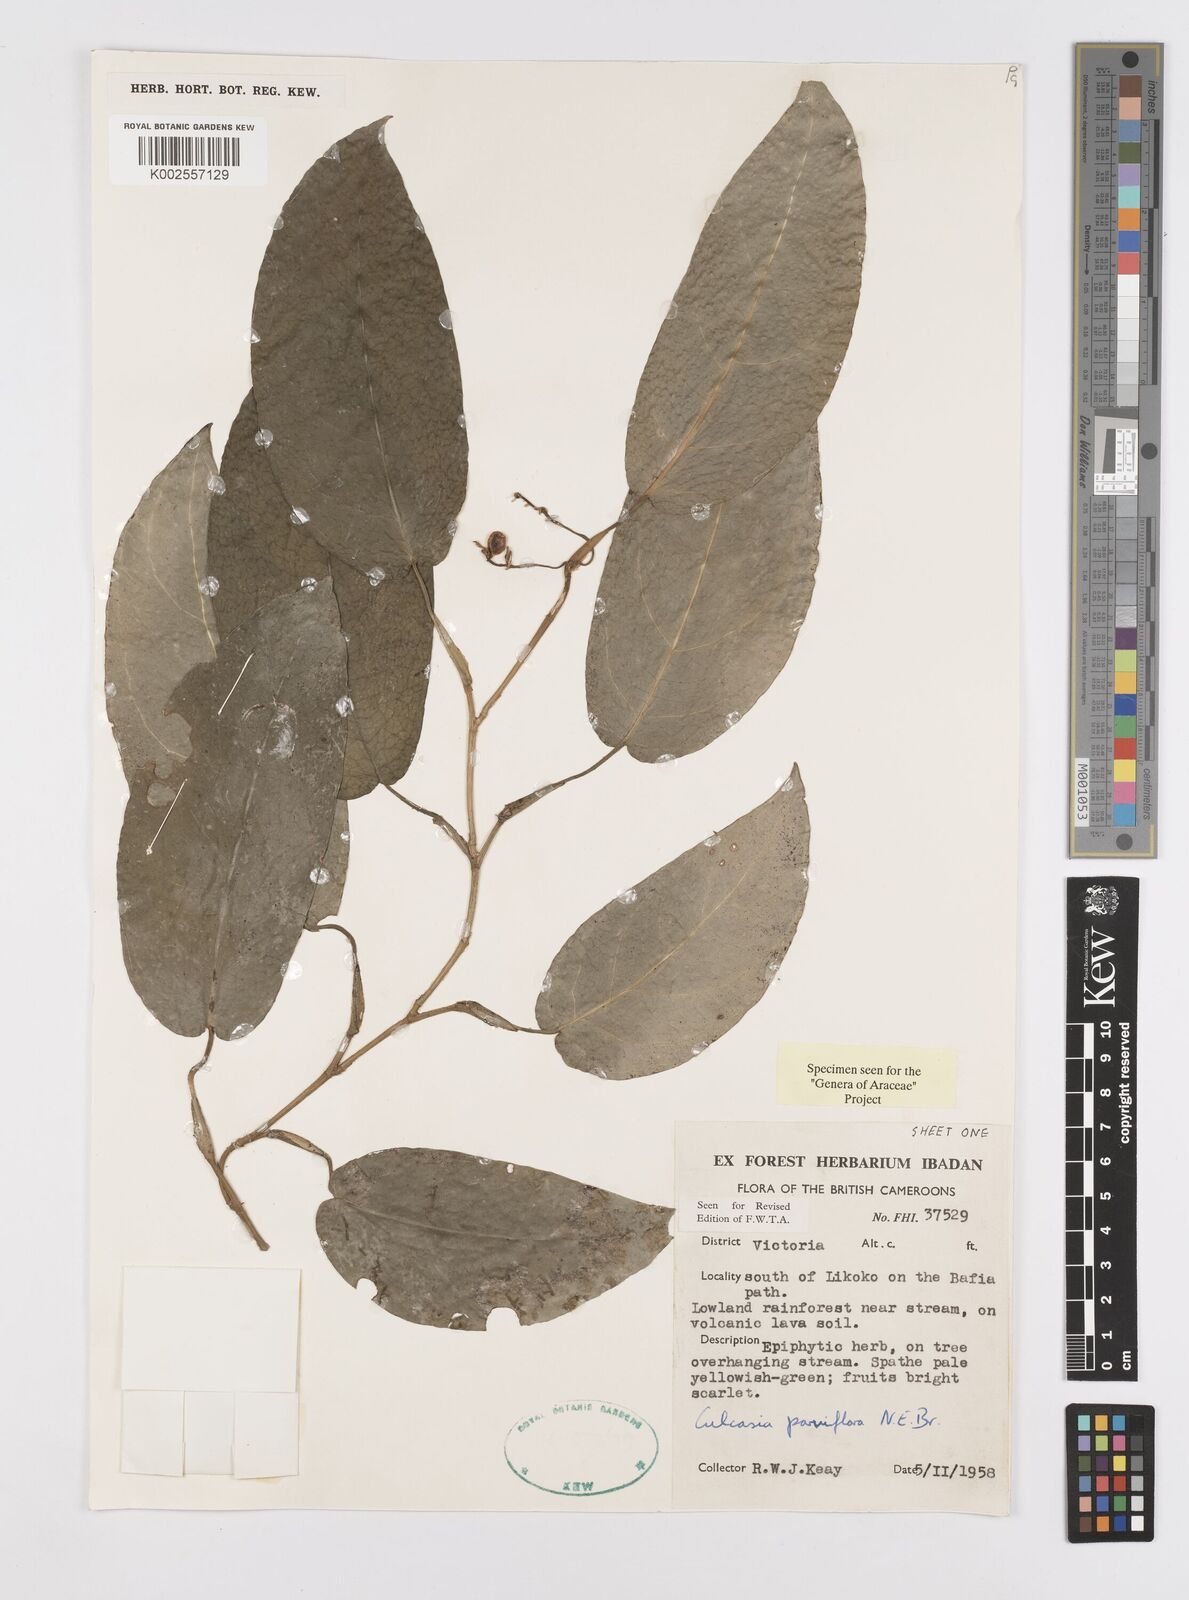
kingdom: Plantae
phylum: Tracheophyta
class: Liliopsida
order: Alismatales
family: Araceae
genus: Culcasia
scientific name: Culcasia parviflora
